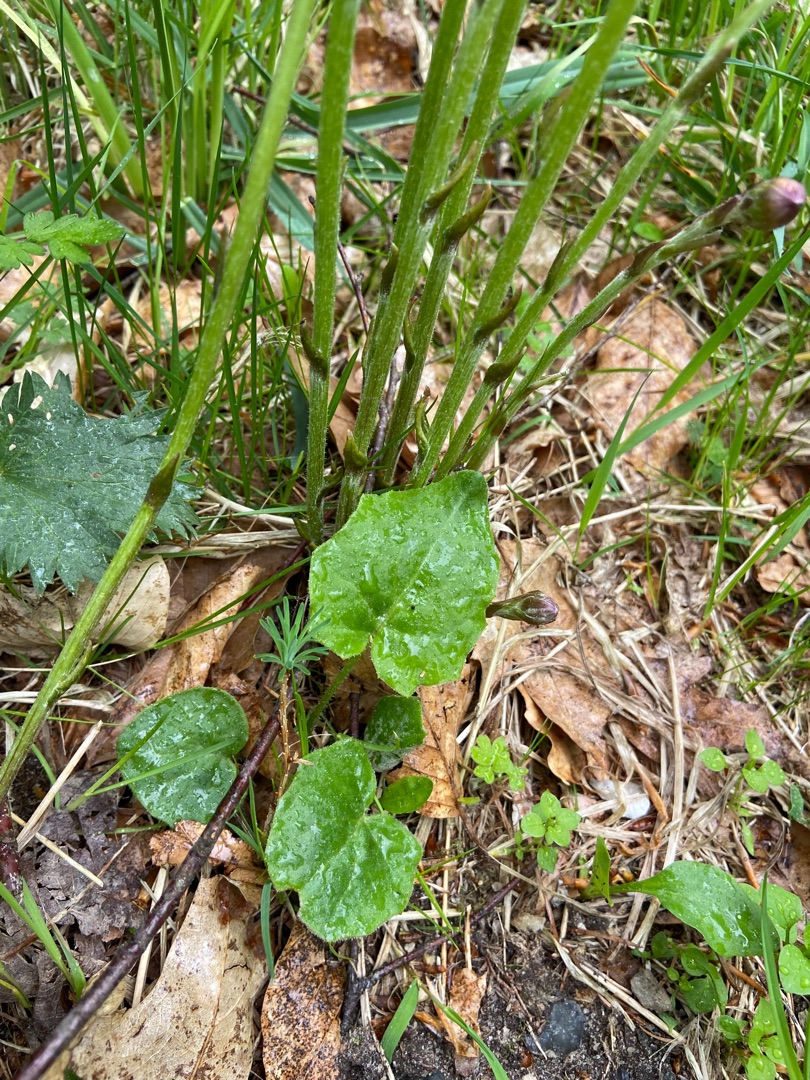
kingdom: Plantae
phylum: Tracheophyta
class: Magnoliopsida
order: Asterales
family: Asteraceae
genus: Tussilago
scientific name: Tussilago farfara
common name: Følfod
